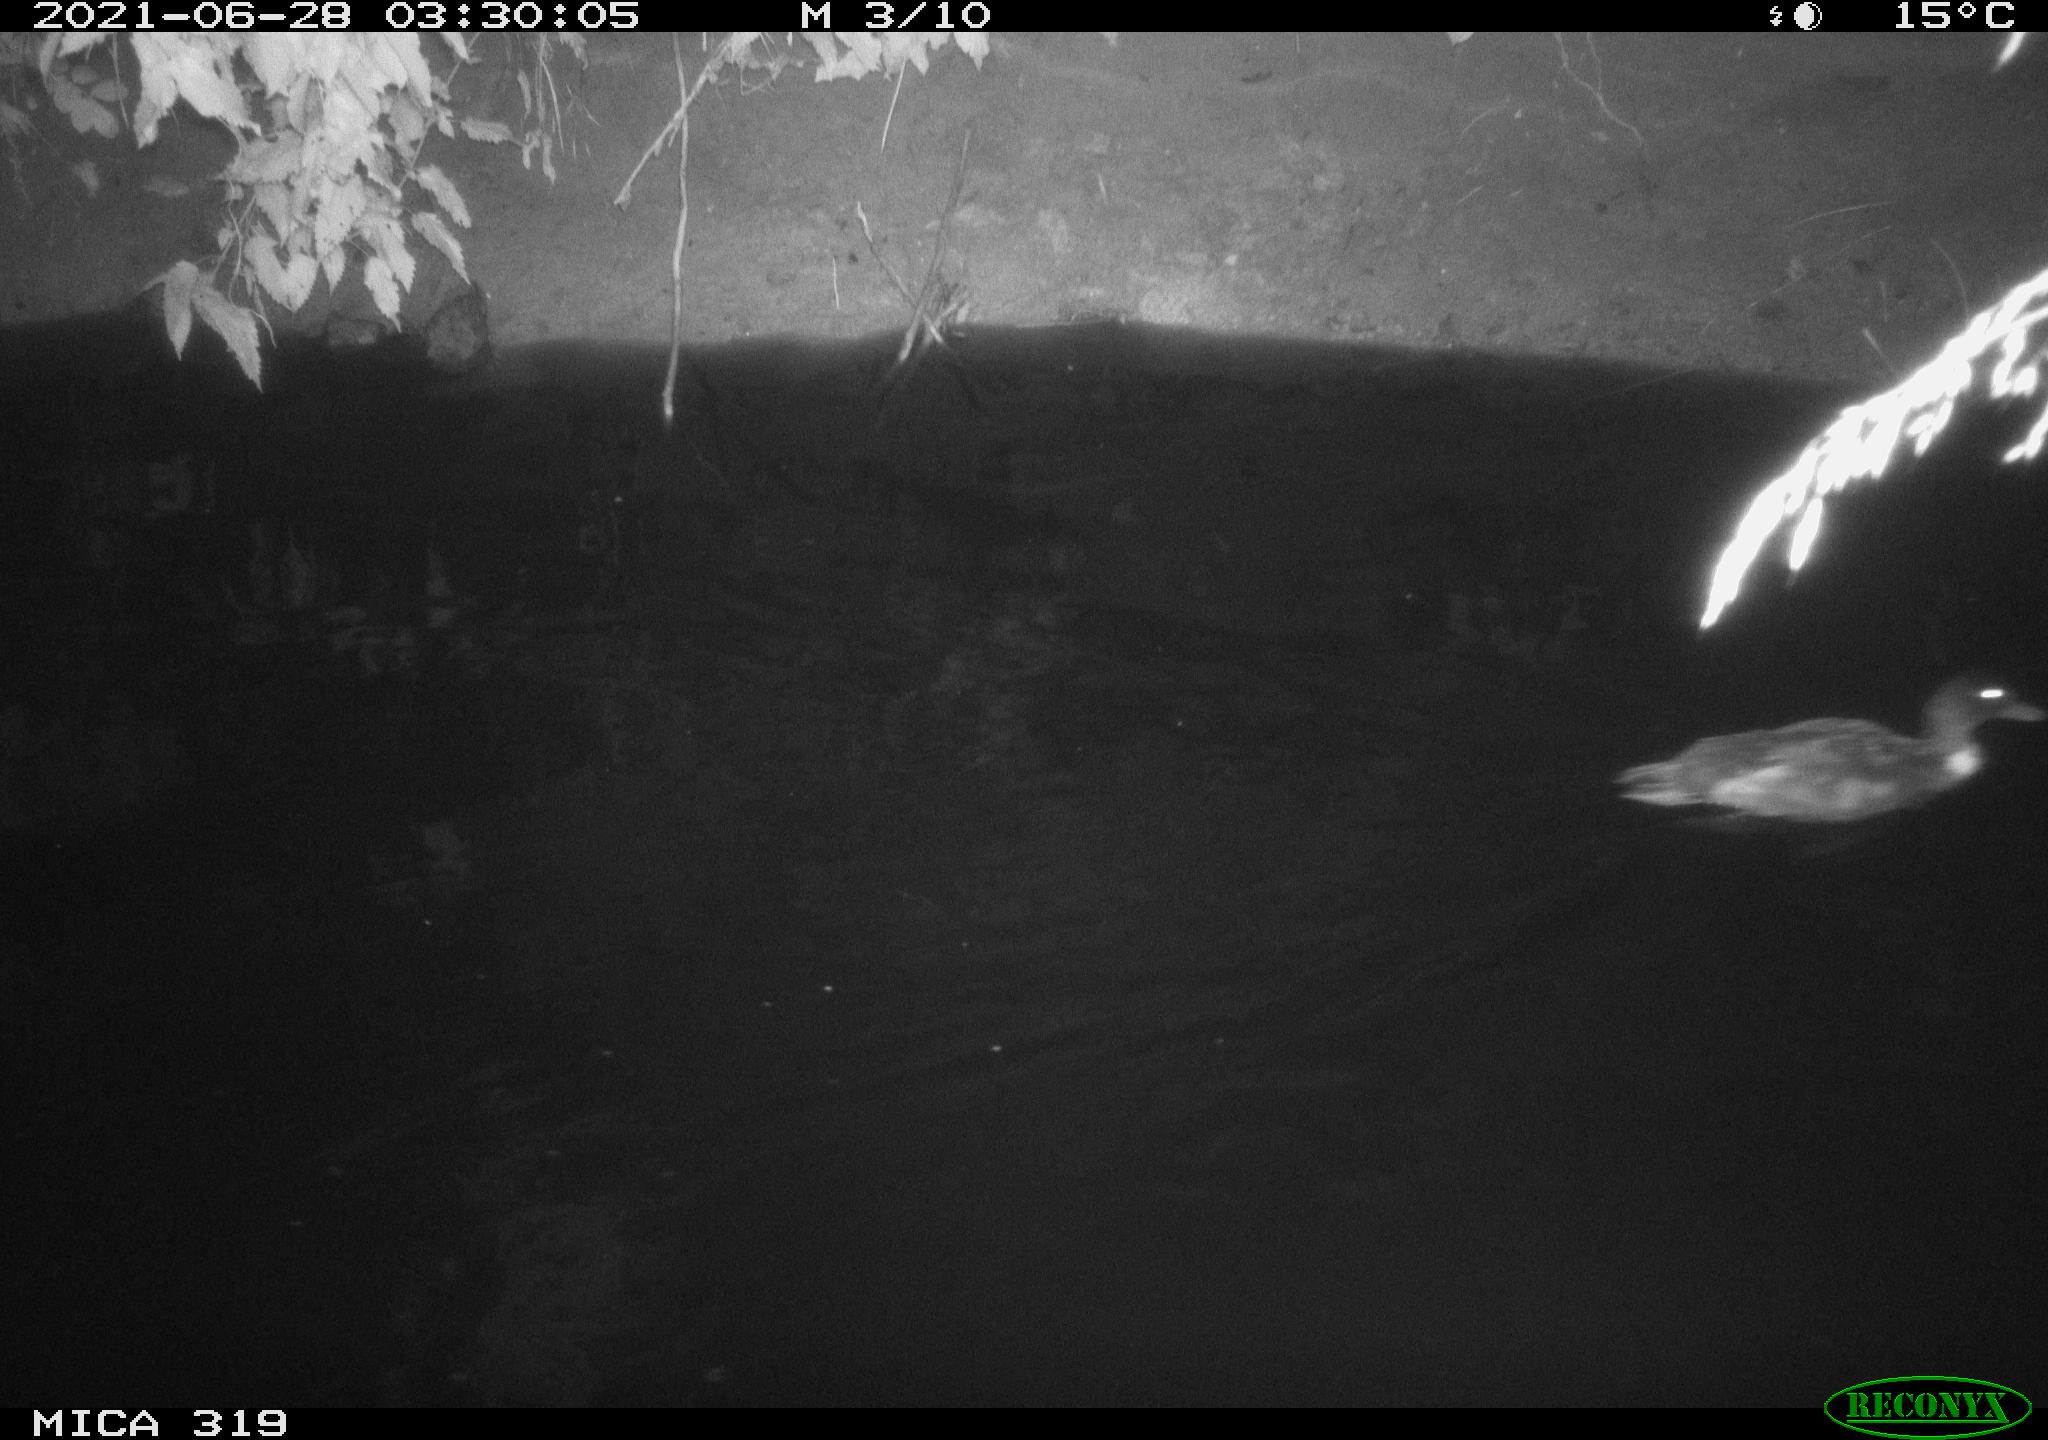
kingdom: Animalia
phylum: Chordata
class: Aves
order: Anseriformes
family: Anatidae
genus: Anas
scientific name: Anas platyrhynchos
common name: Mallard
